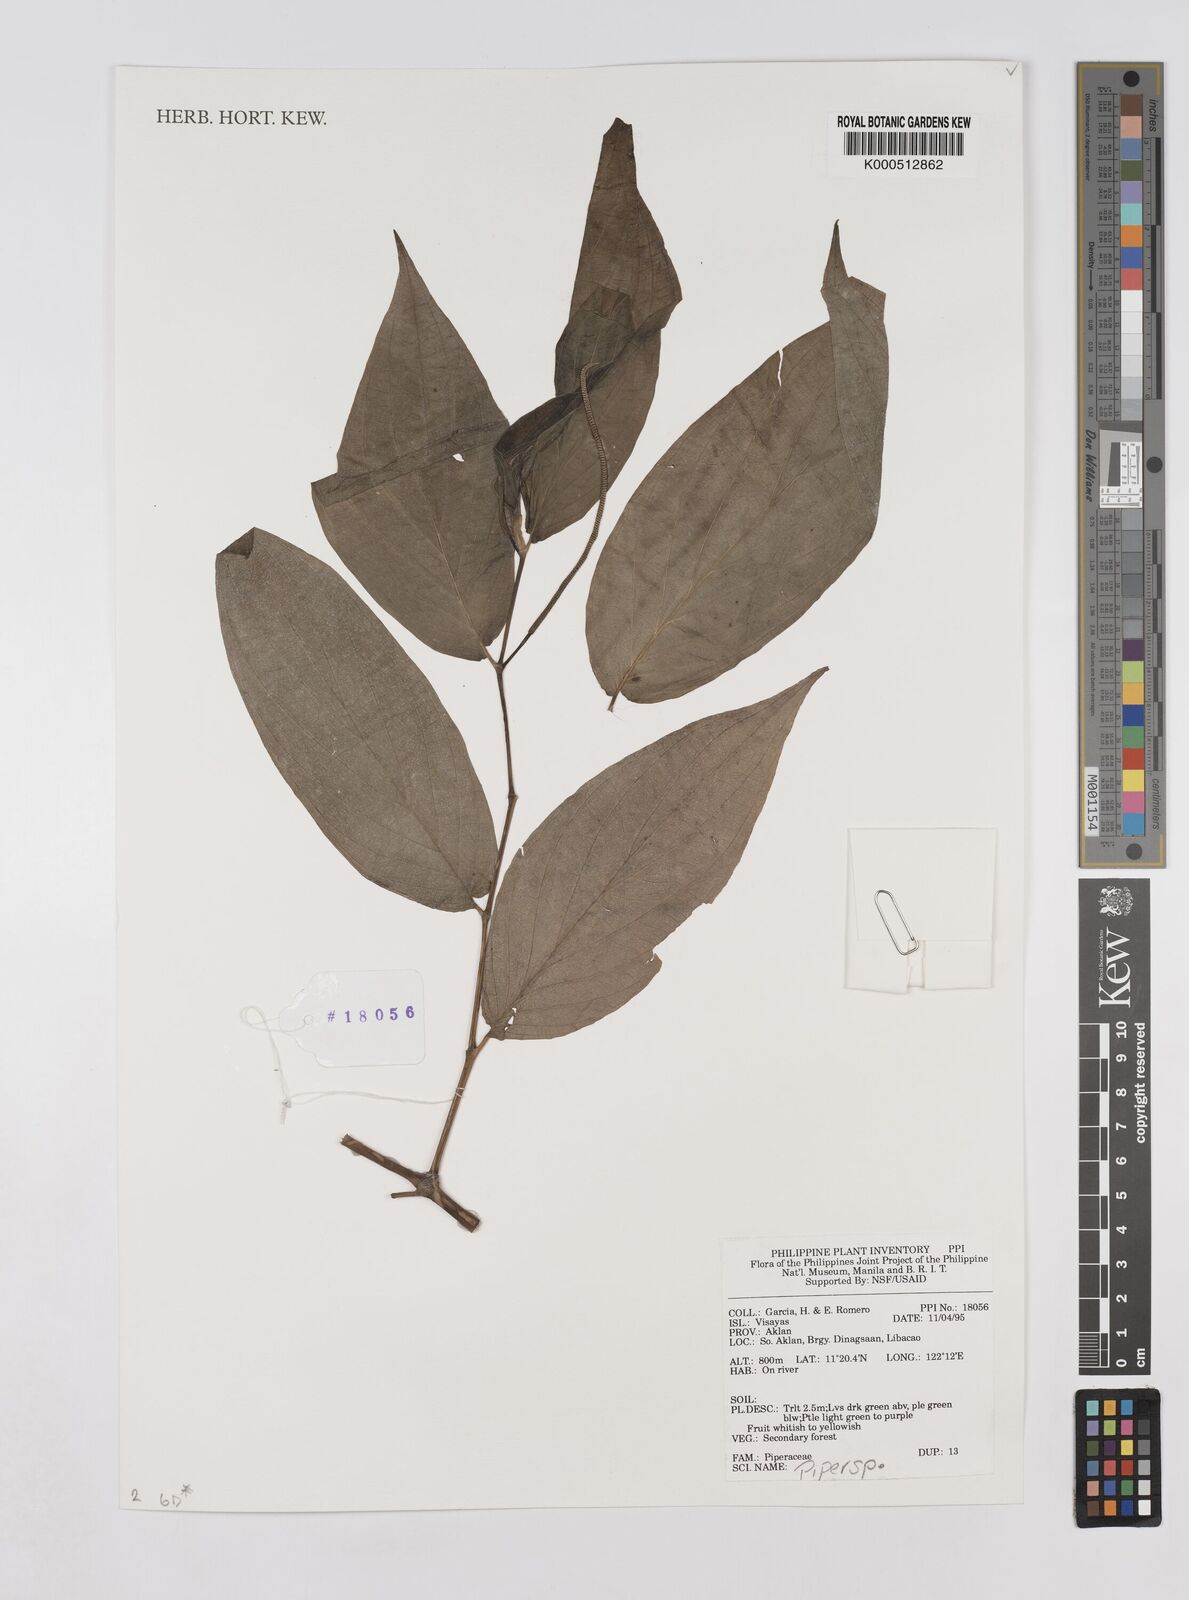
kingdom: Plantae
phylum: Tracheophyta
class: Magnoliopsida
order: Piperales
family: Piperaceae
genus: Piper
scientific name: Piper
